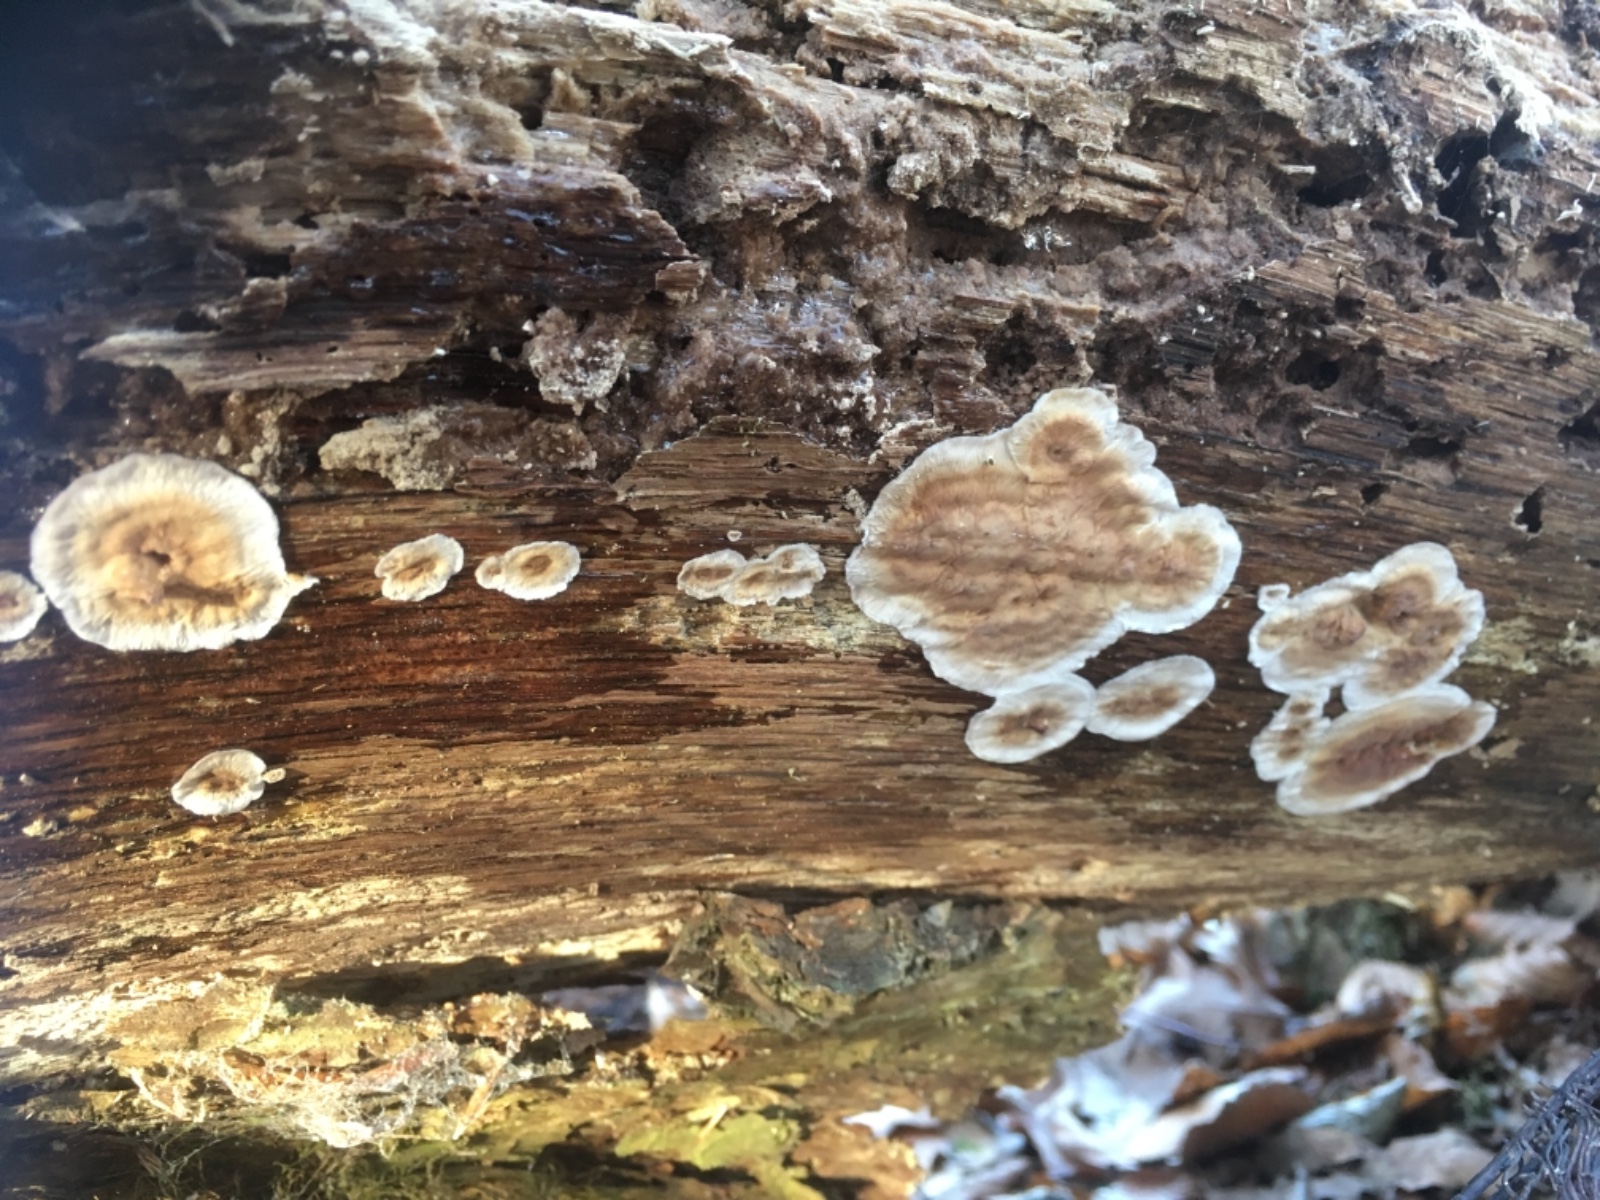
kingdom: Fungi
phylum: Basidiomycota
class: Agaricomycetes
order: Russulales
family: Stereaceae
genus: Stereum
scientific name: Stereum
